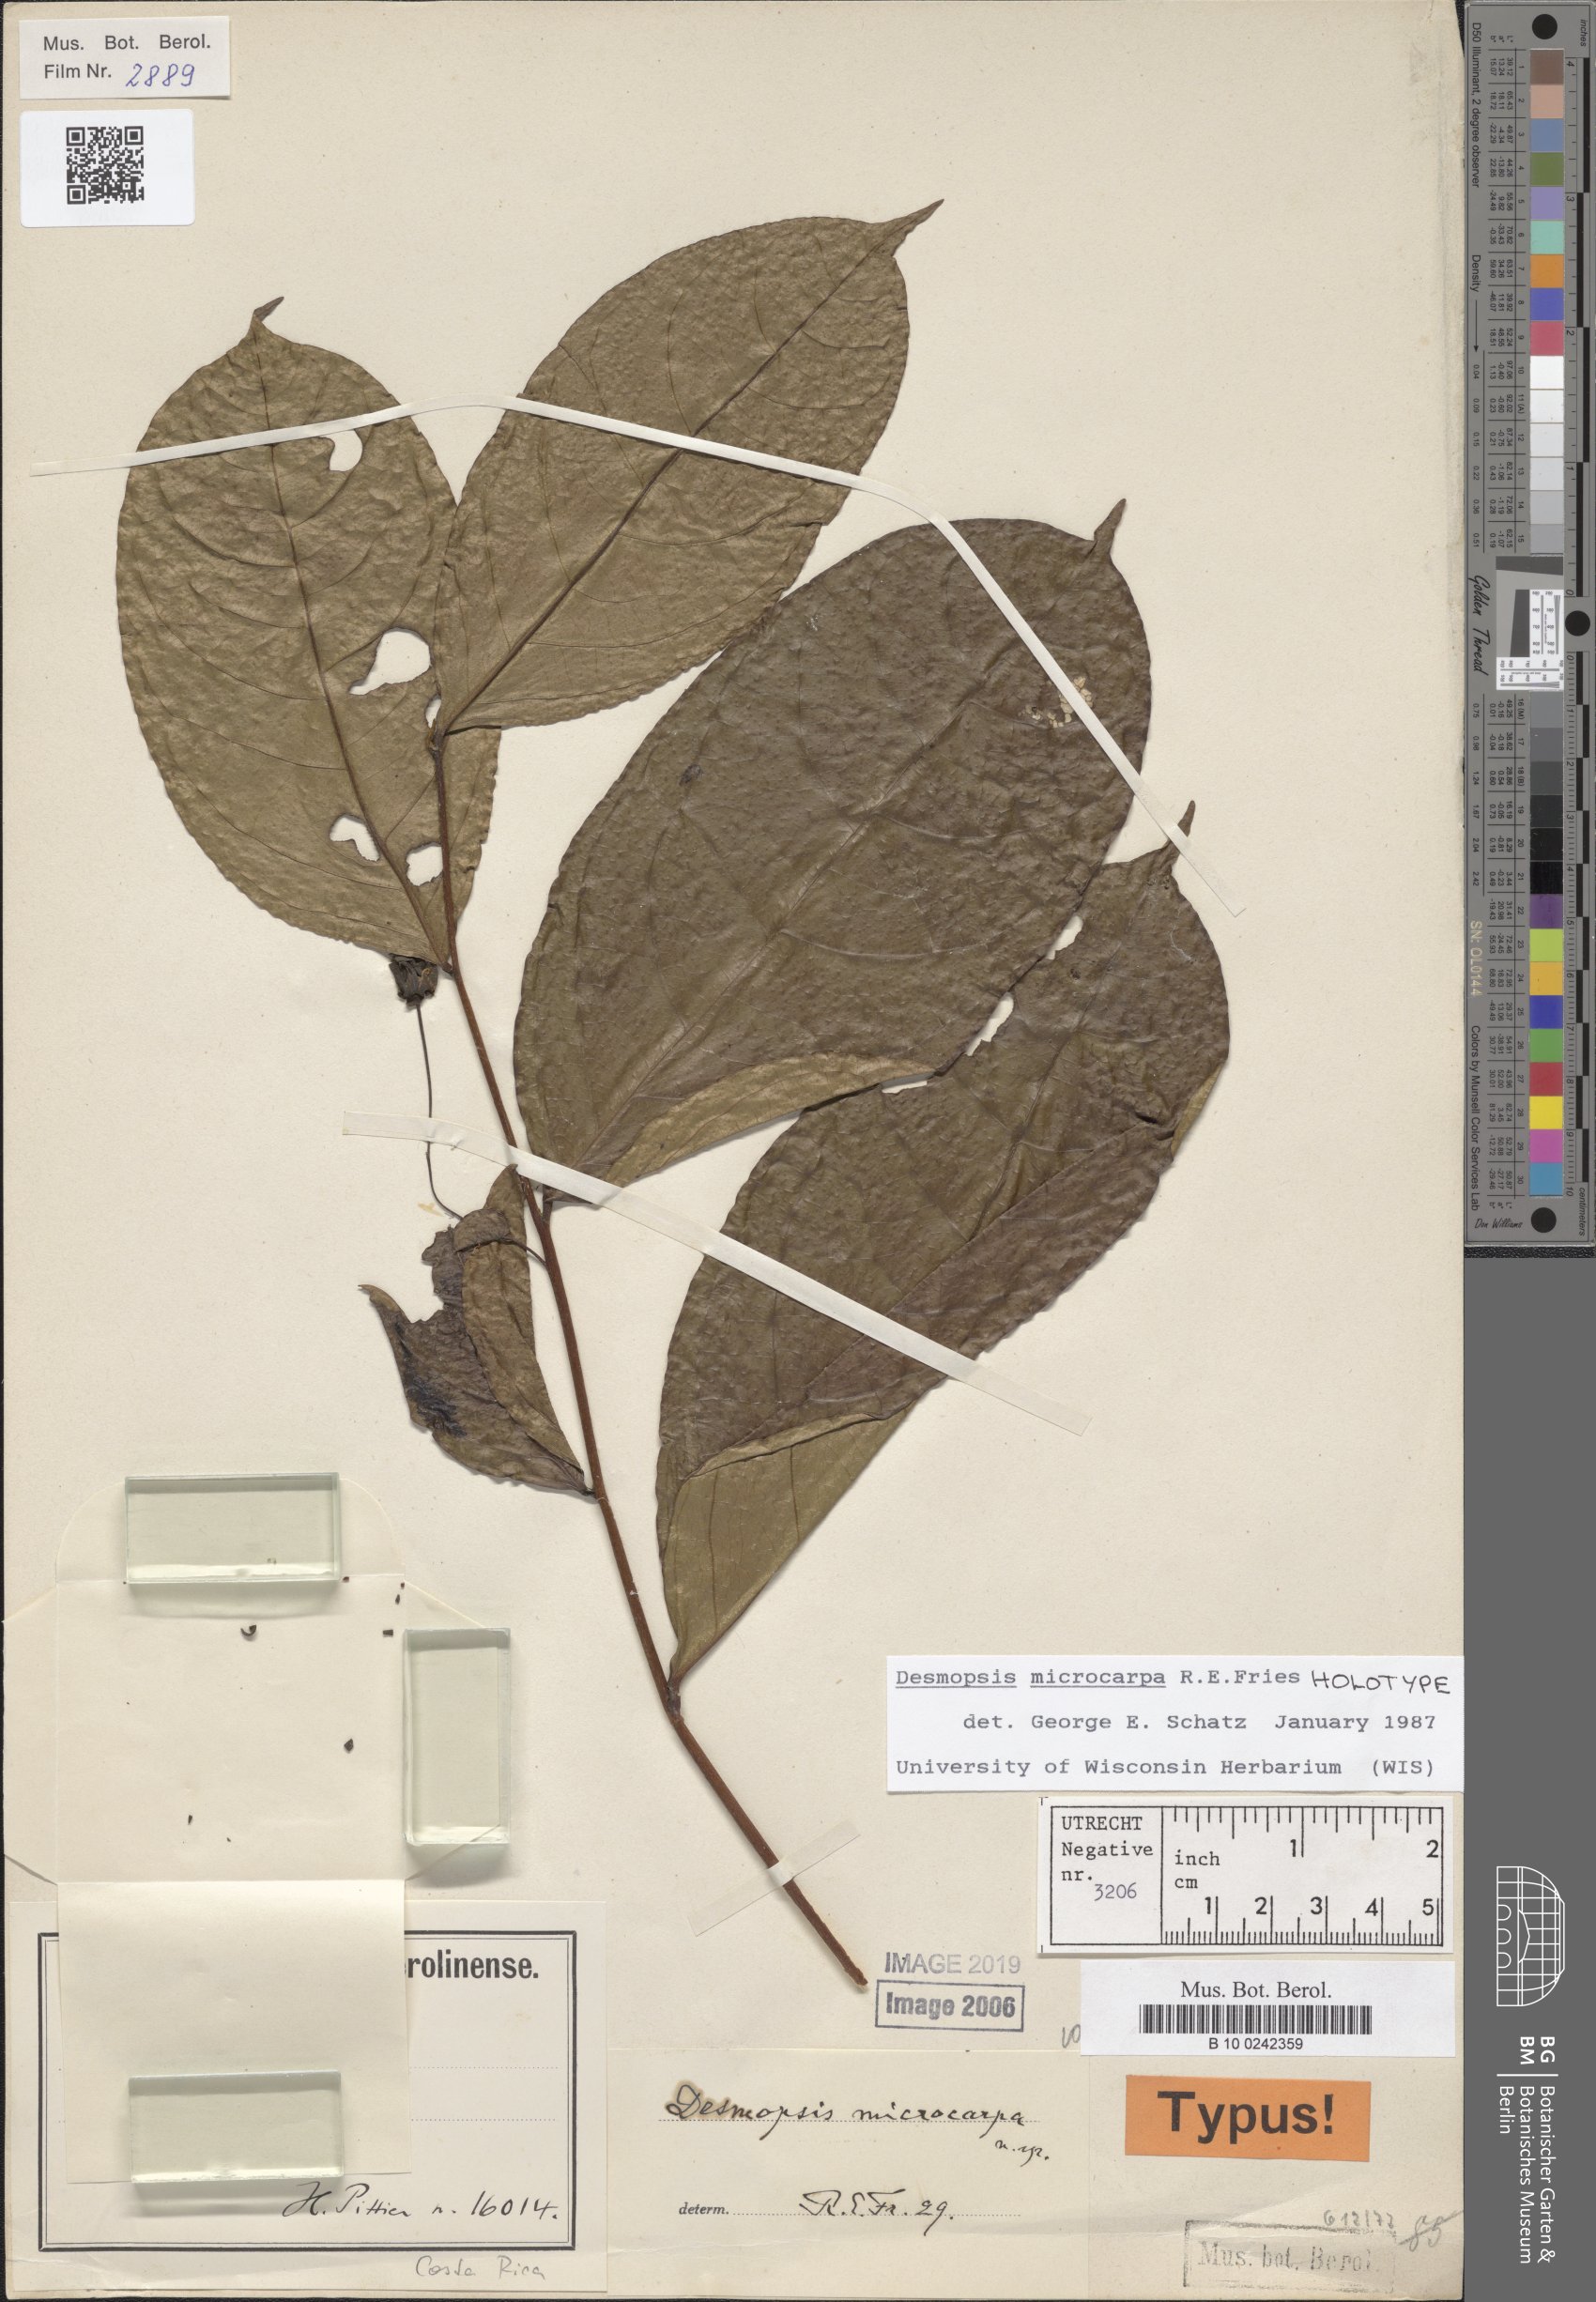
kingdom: Plantae
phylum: Tracheophyta
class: Magnoliopsida
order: Magnoliales
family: Annonaceae
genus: Desmopsis
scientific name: Desmopsis microcarpa
